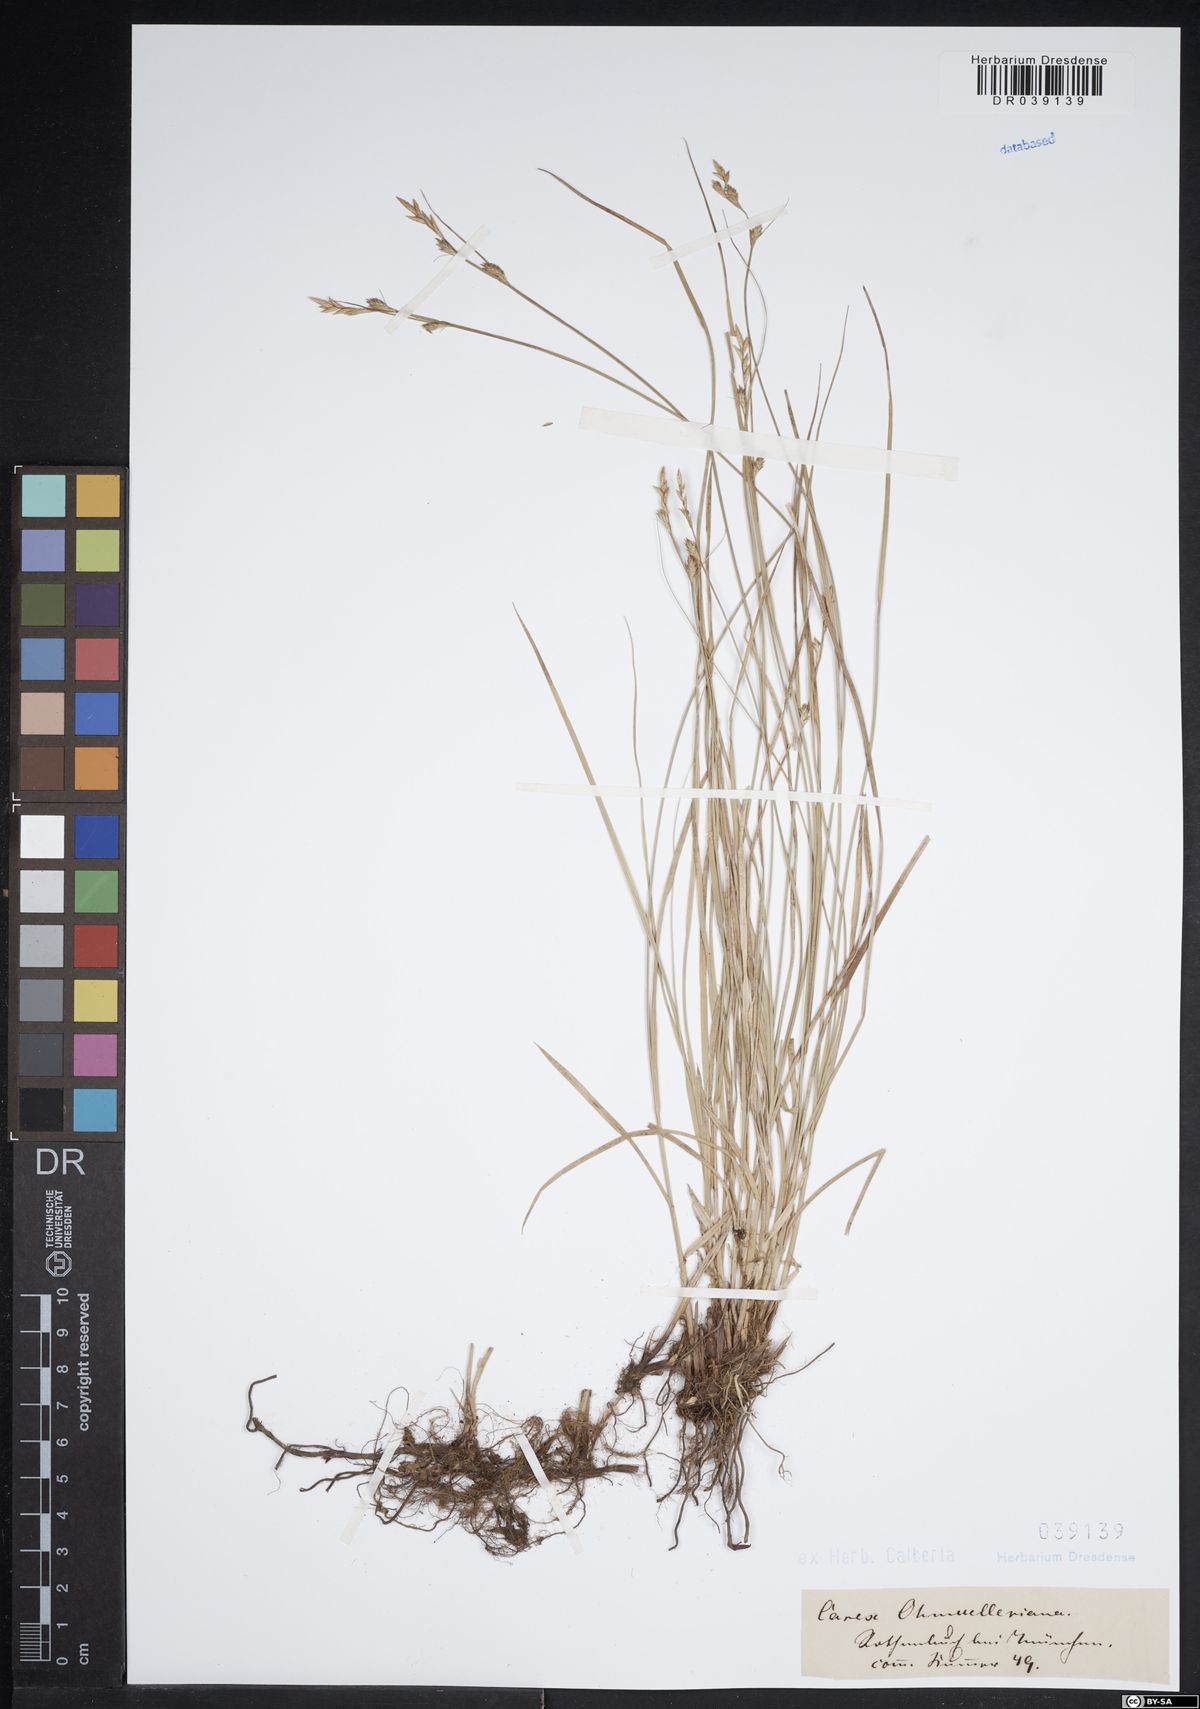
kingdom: Plantae
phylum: Tracheophyta
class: Liliopsida
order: Poales
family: Cyperaceae
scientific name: Cyperaceae
